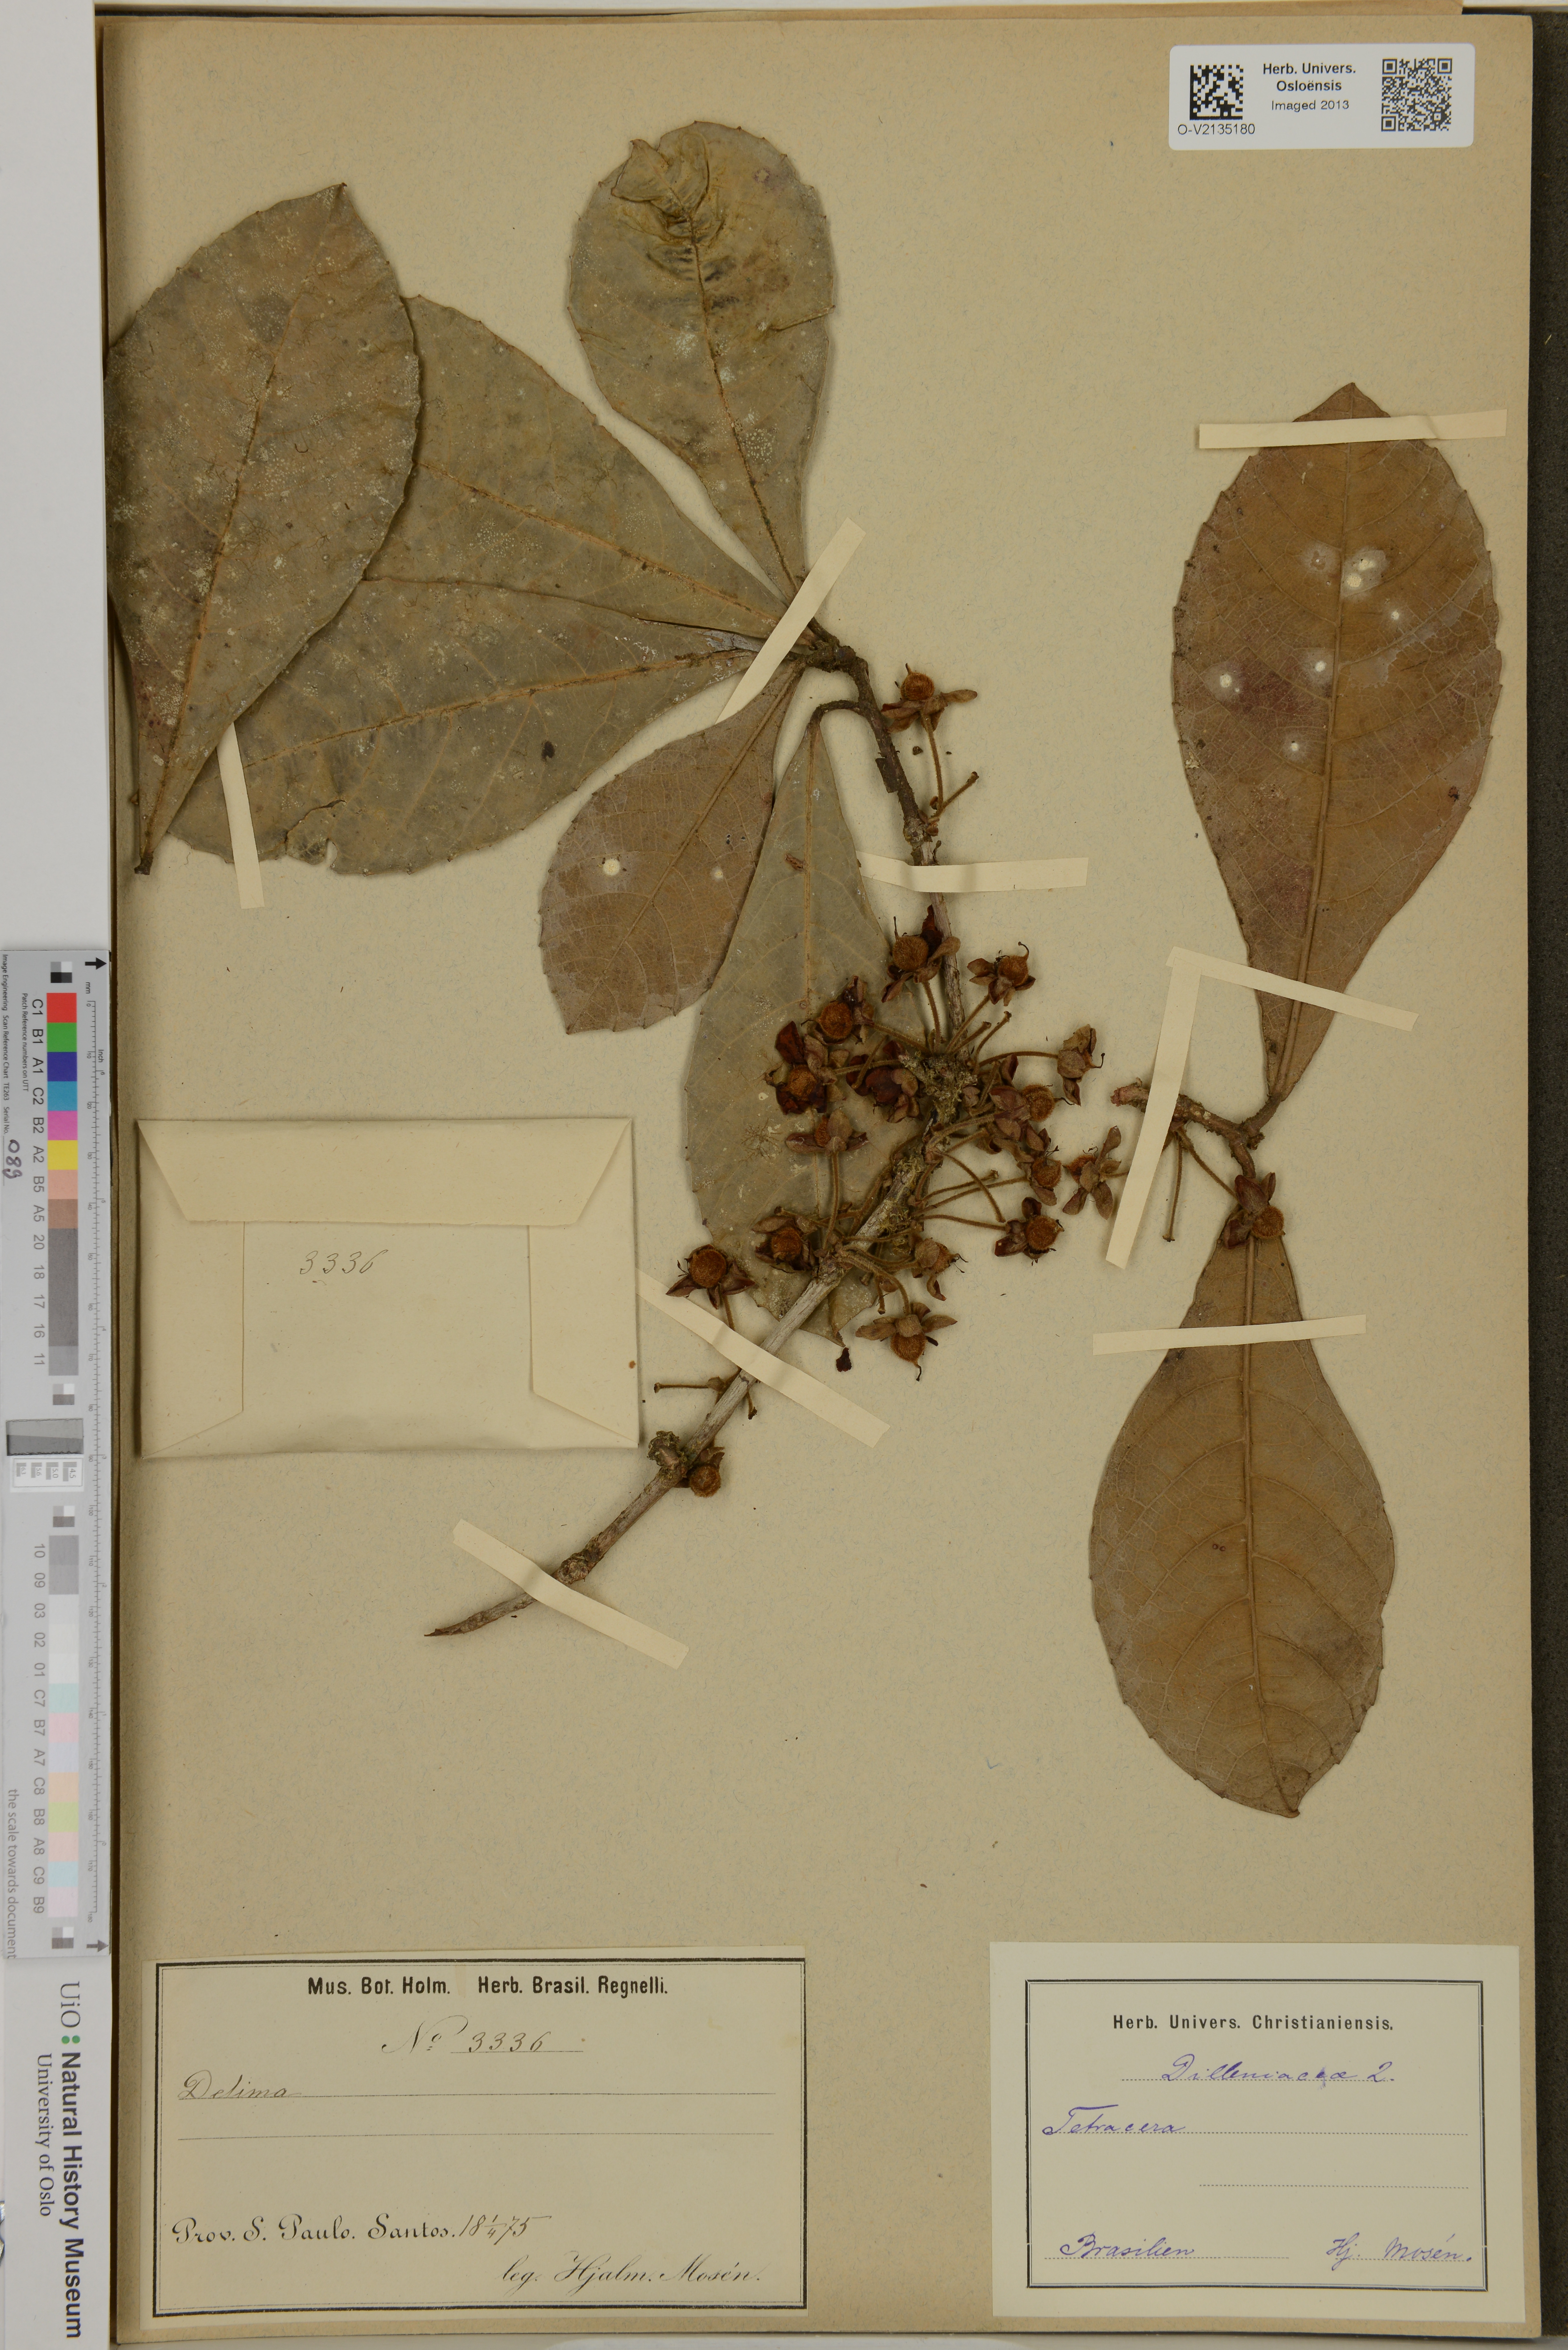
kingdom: Plantae
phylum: Tracheophyta
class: Magnoliopsida
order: Dilleniales
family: Dilleniaceae
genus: Tetracera
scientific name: Tetracera
